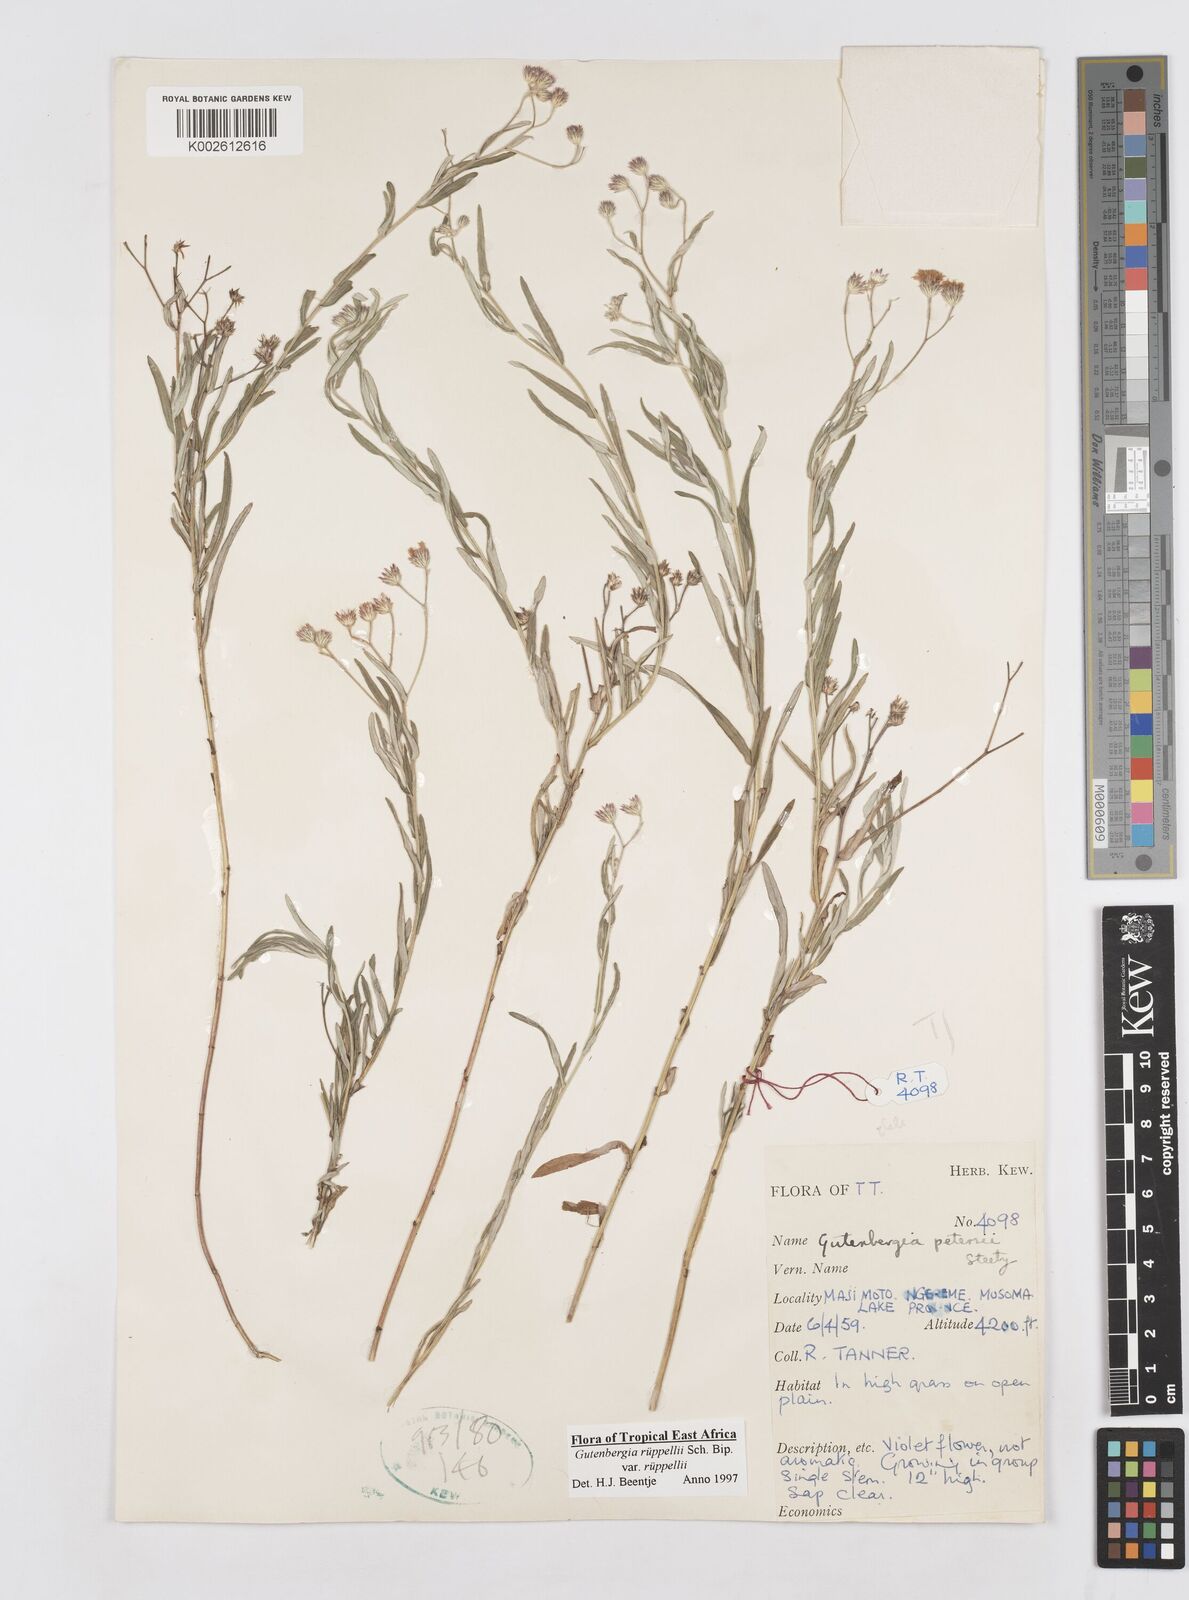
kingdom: Plantae
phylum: Tracheophyta
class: Magnoliopsida
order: Asterales
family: Asteraceae
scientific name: Asteraceae
